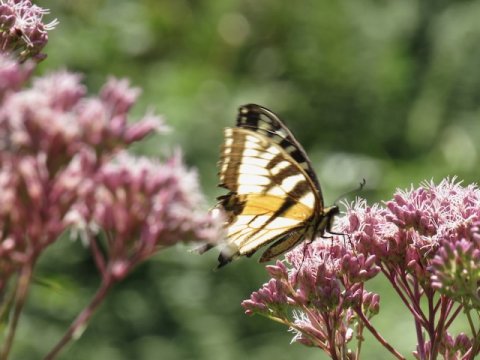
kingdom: Animalia
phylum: Arthropoda
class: Insecta
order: Lepidoptera
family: Papilionidae
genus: Pterourus
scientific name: Pterourus
